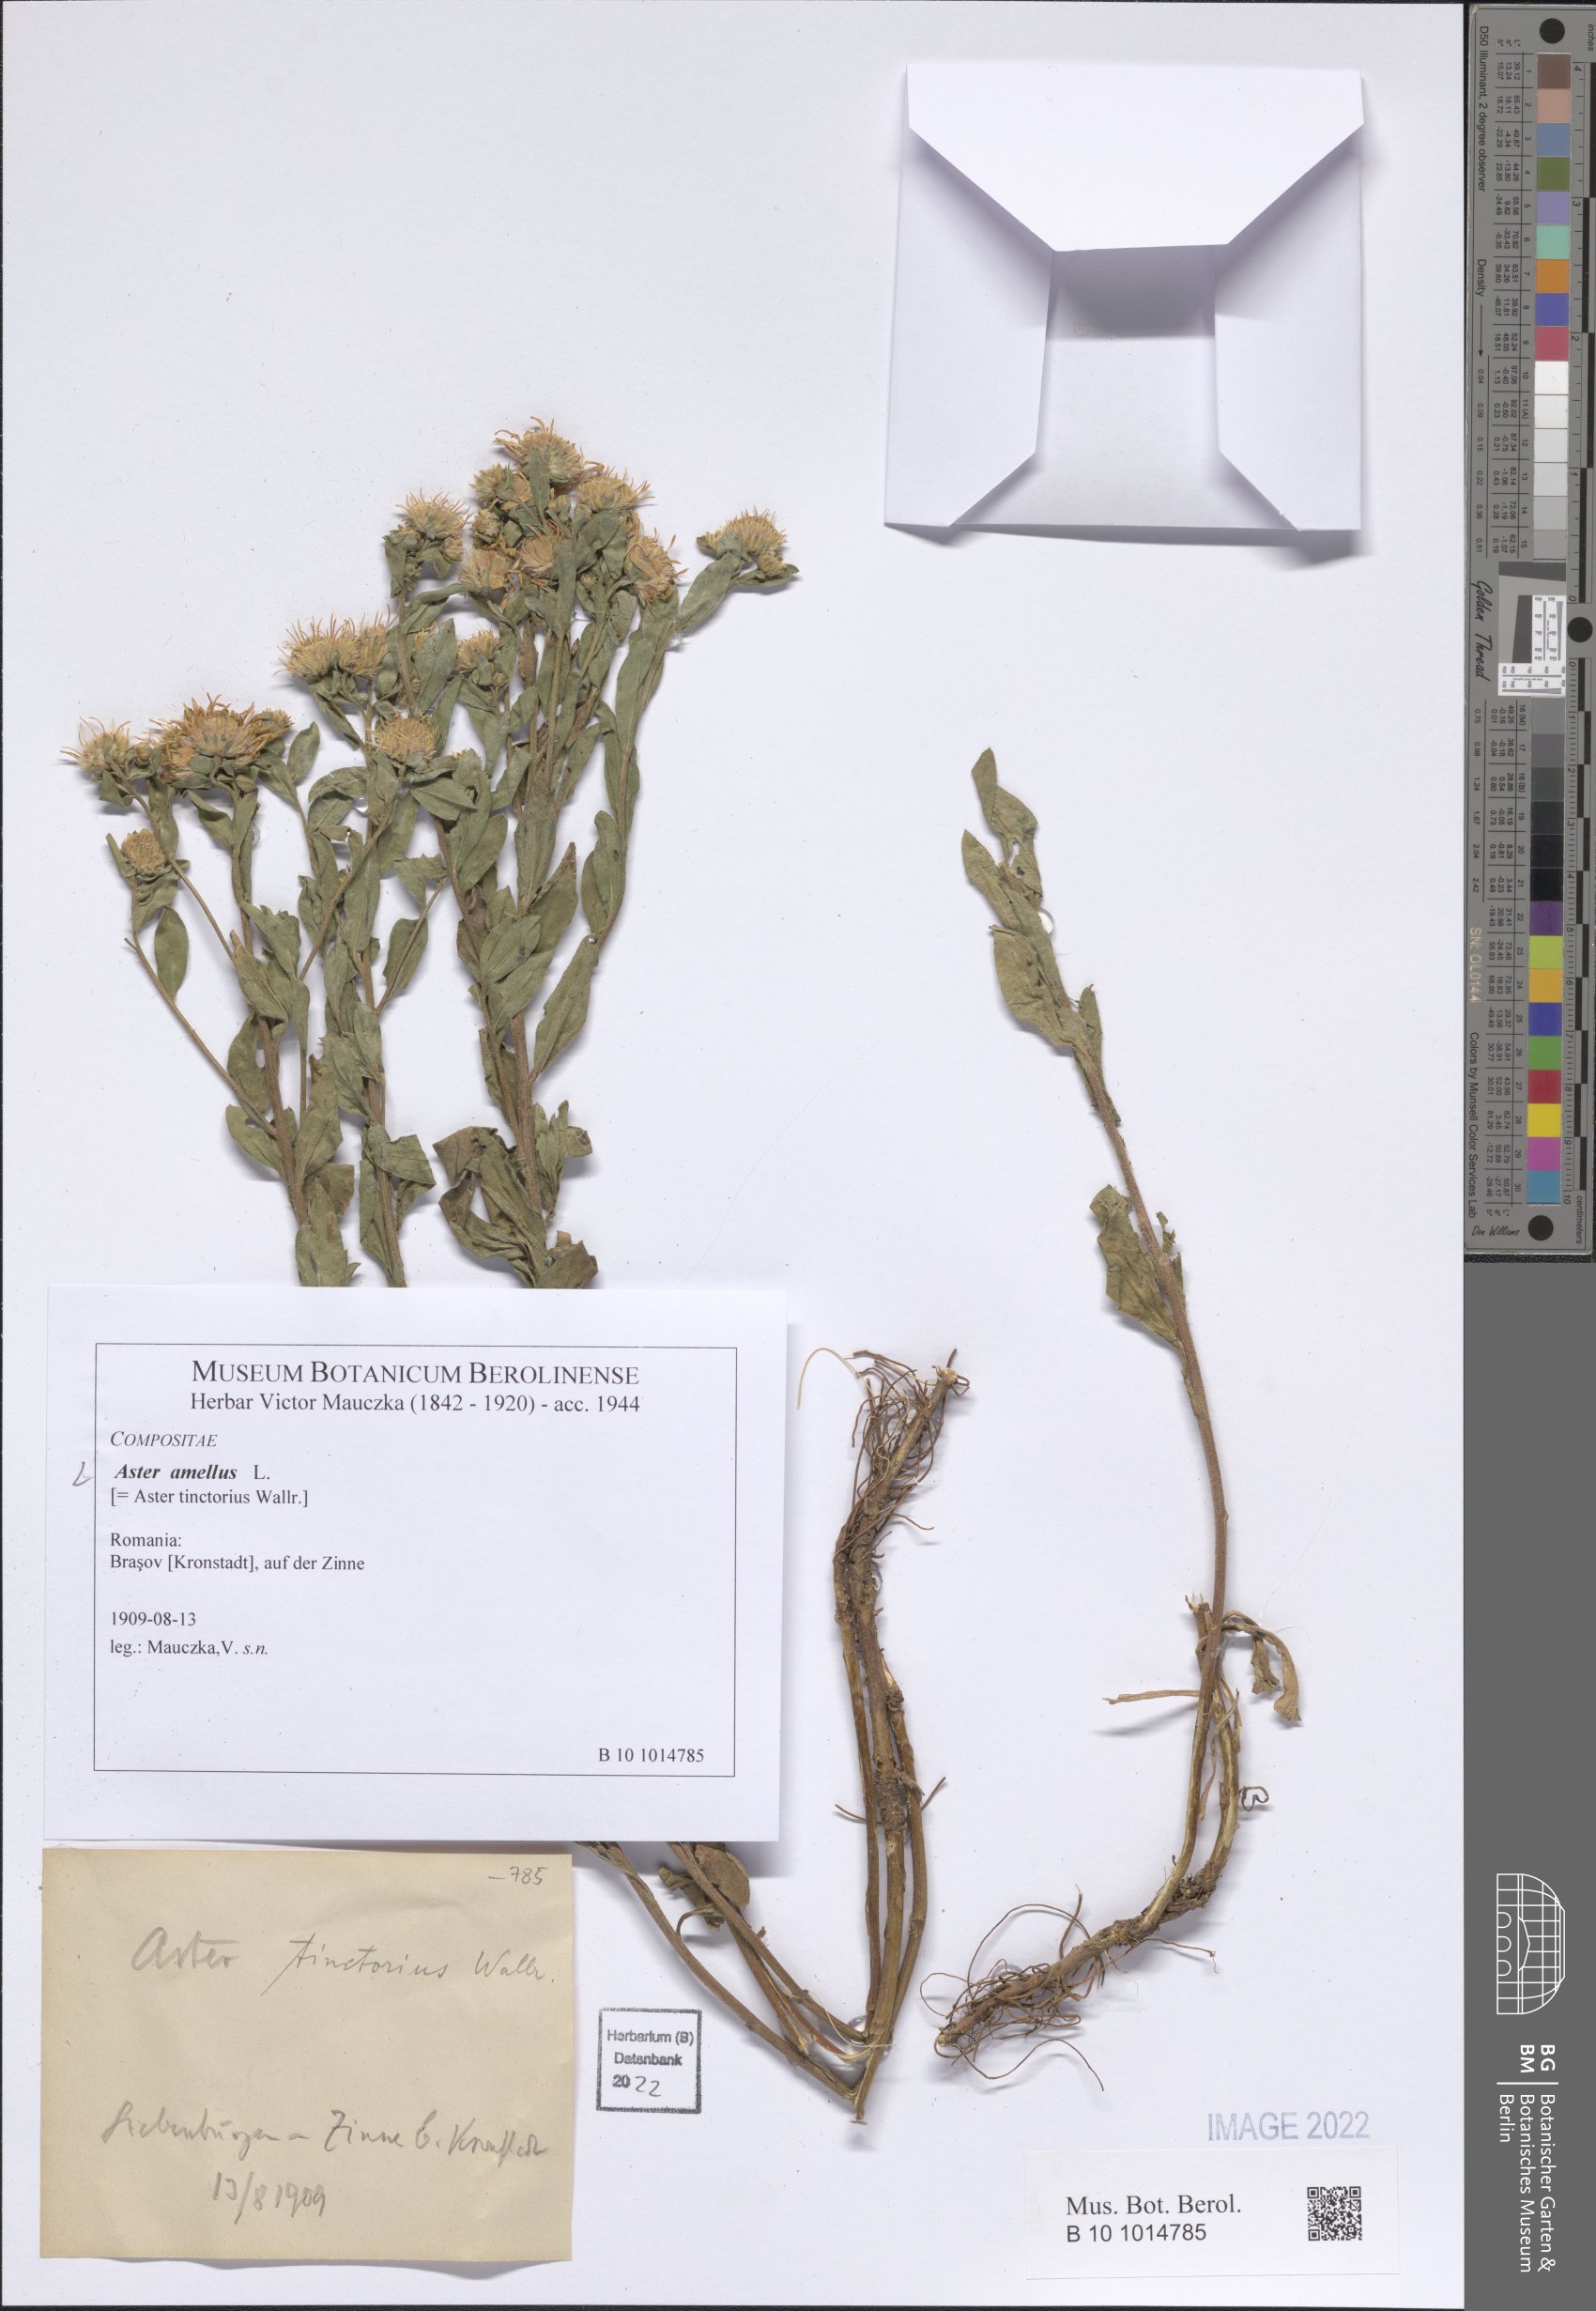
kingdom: Plantae
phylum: Tracheophyta
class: Magnoliopsida
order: Asterales
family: Asteraceae
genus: Aster
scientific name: Aster amellus
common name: European michaelmas daisy
